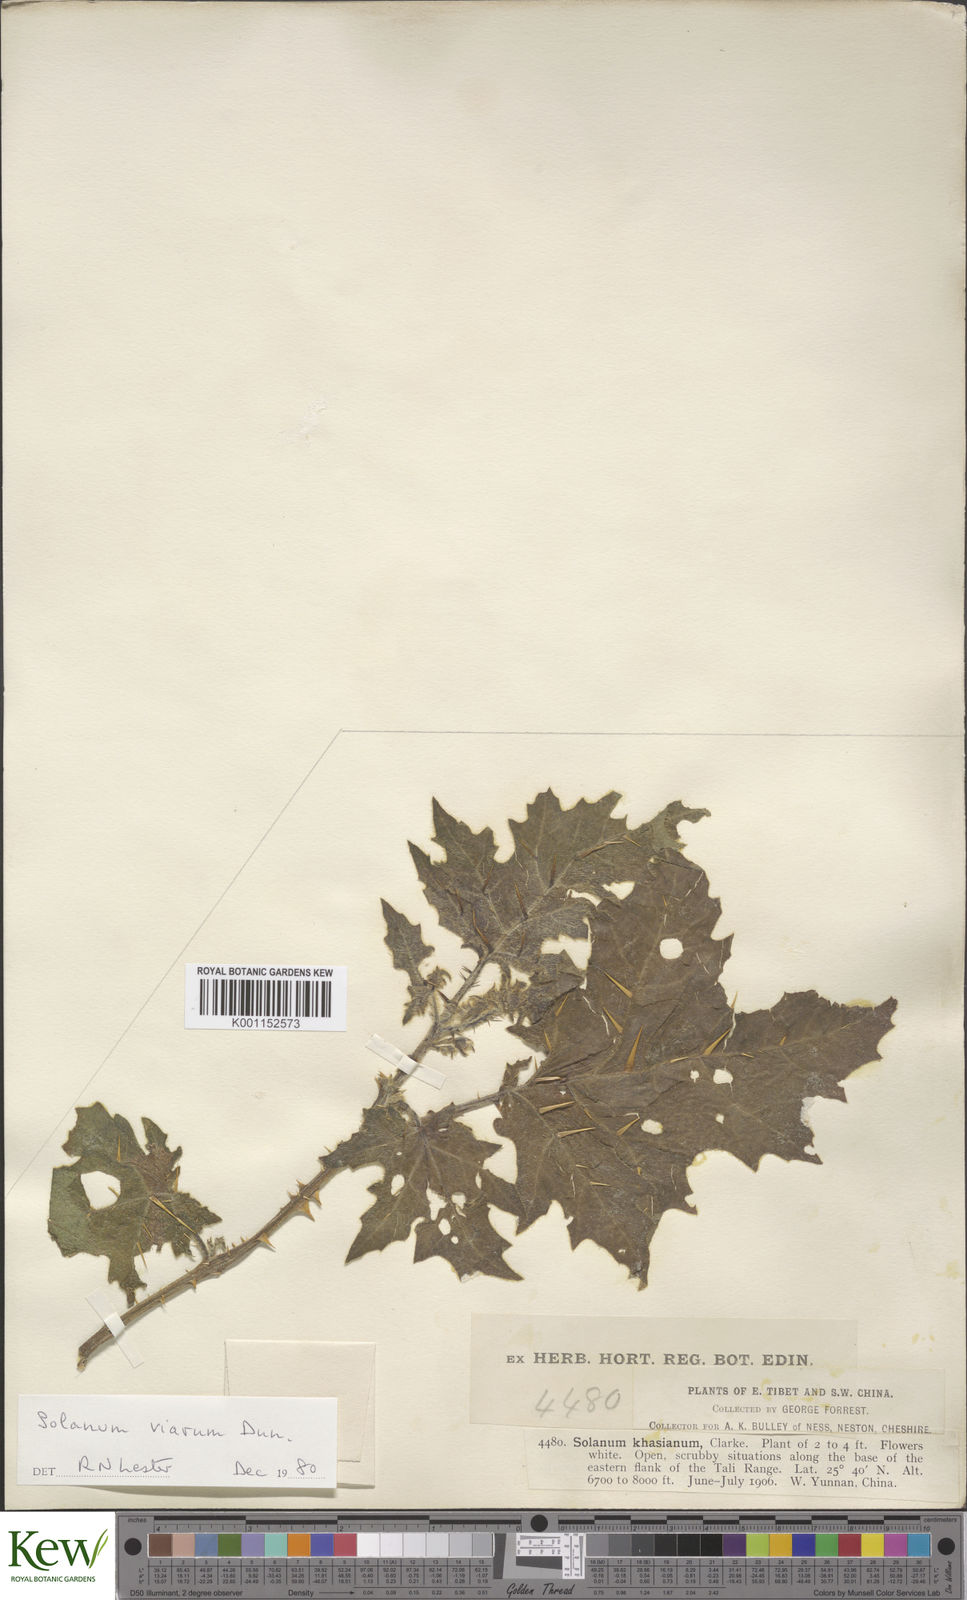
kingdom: Plantae
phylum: Tracheophyta
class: Magnoliopsida
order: Solanales
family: Solanaceae
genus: Solanum
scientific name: Solanum aculeatissimum
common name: Dutch eggplant
